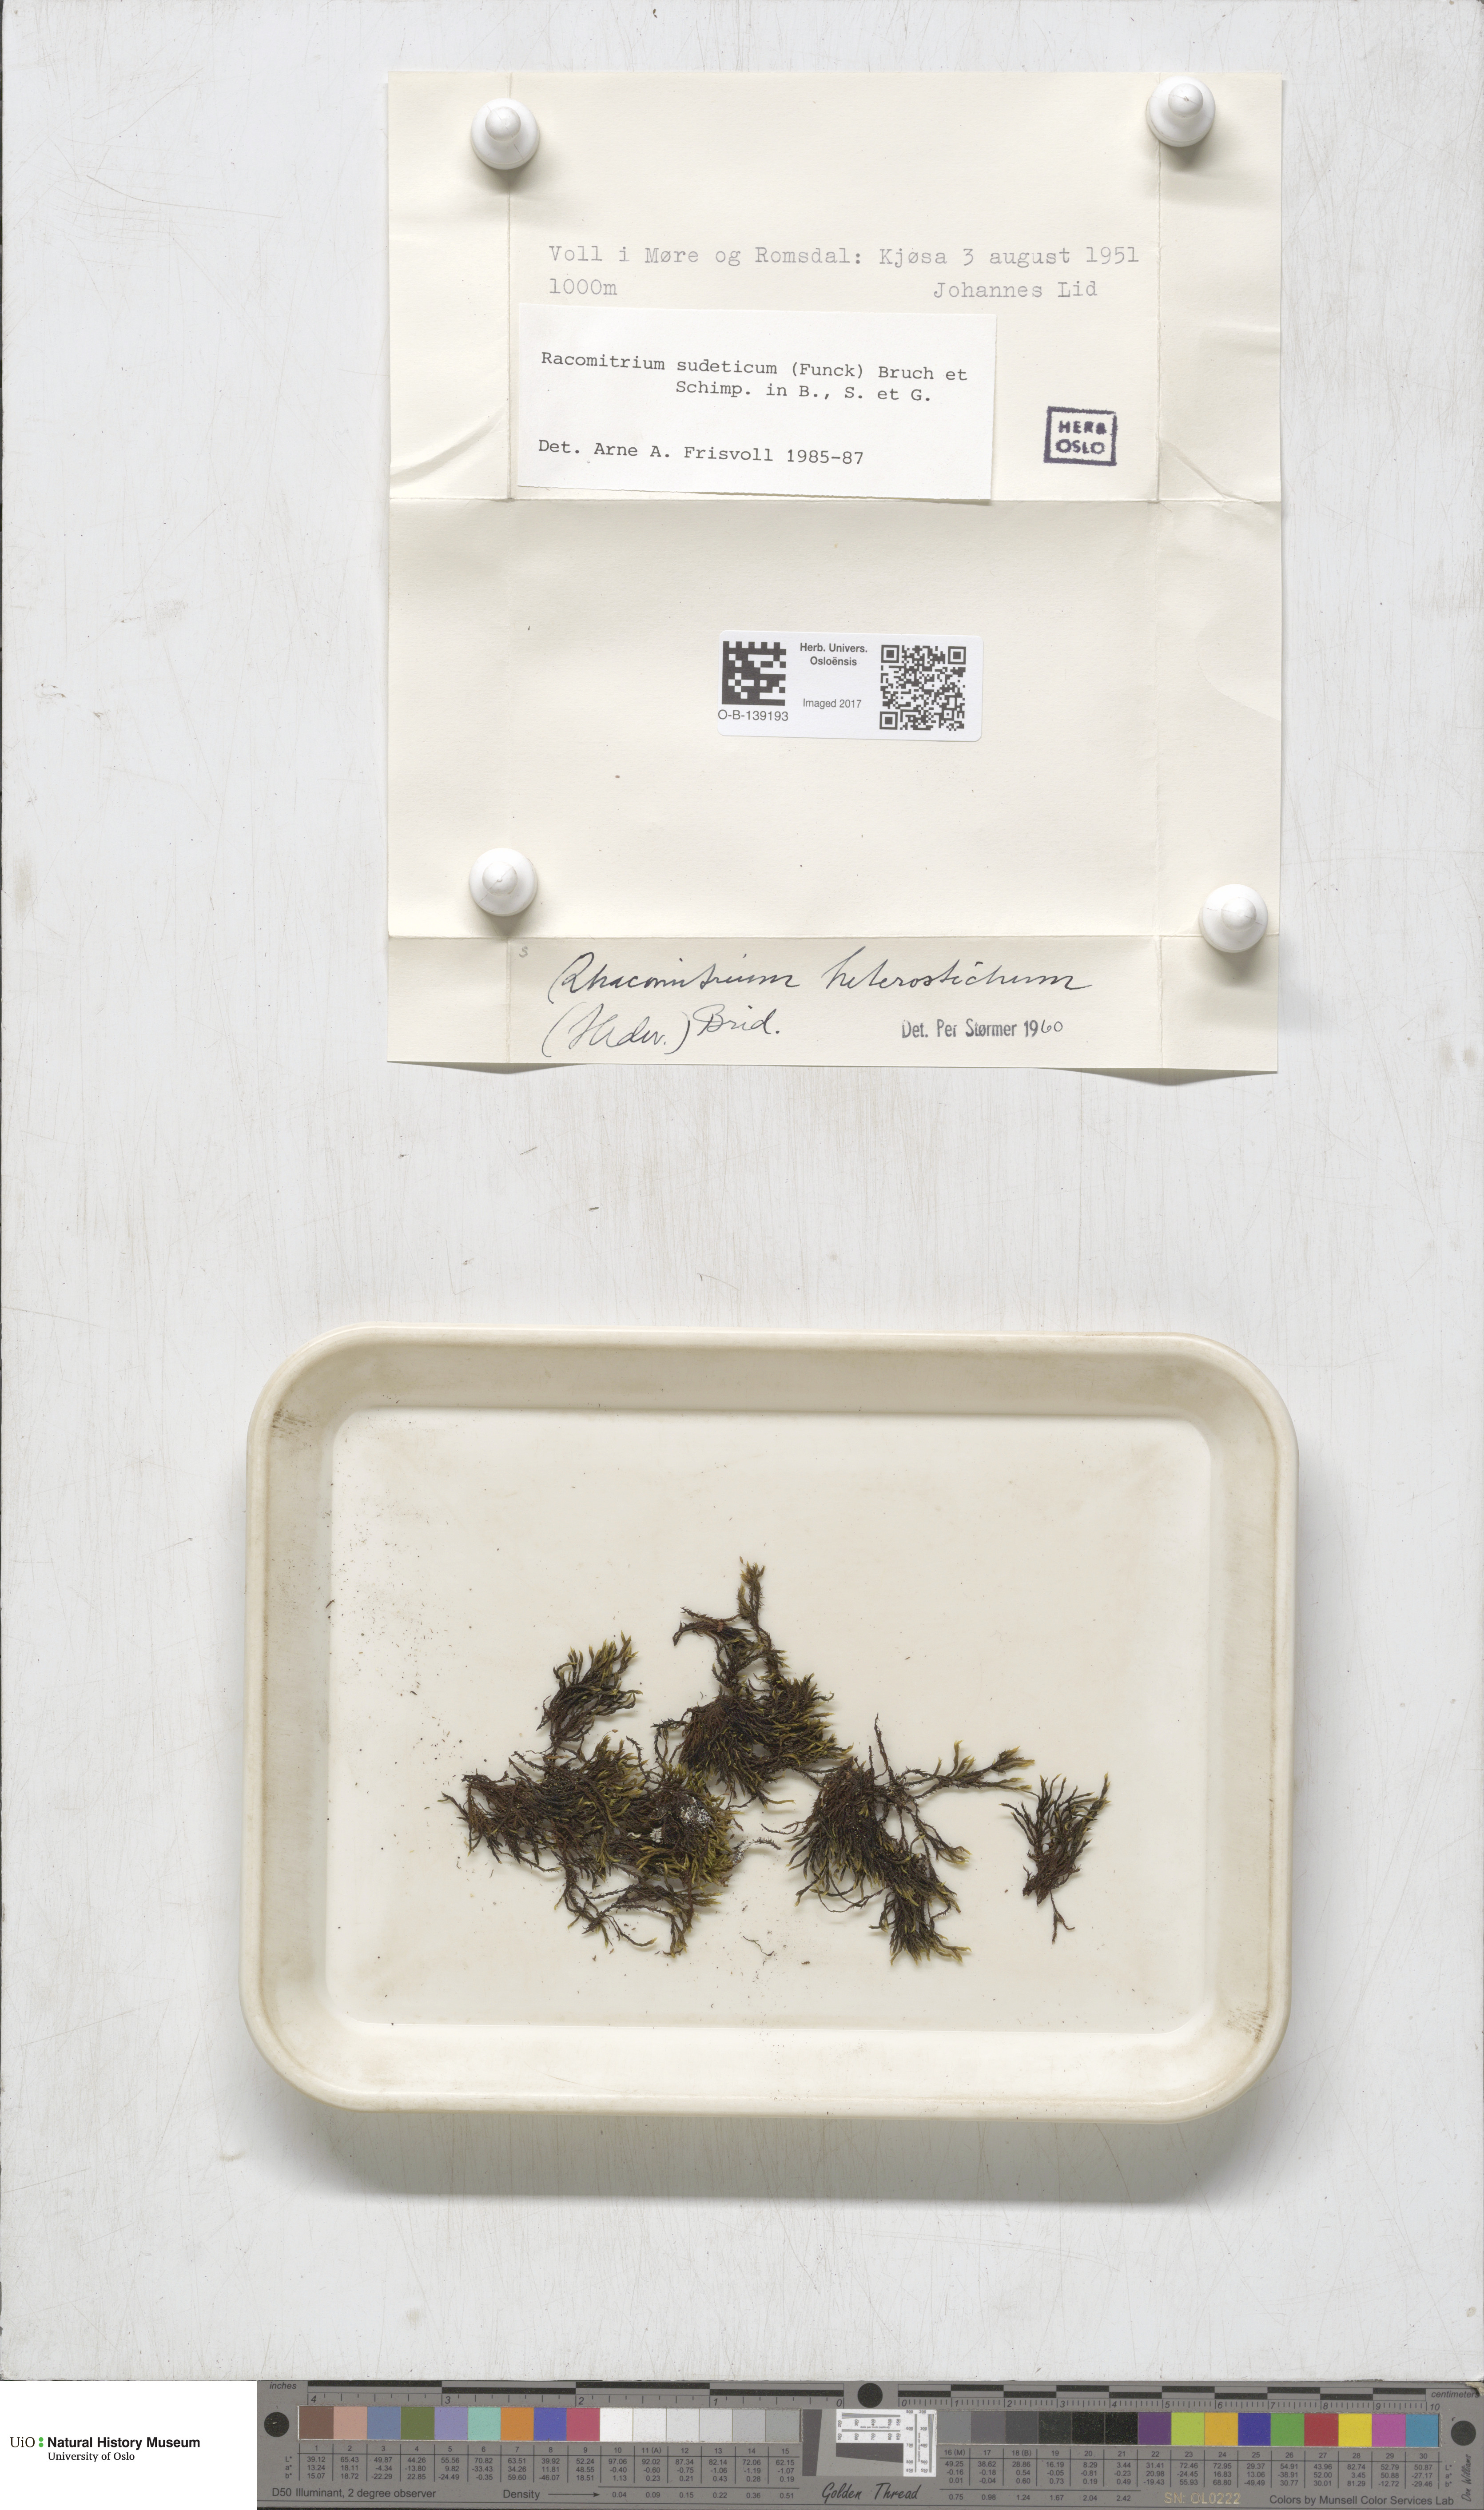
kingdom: Plantae
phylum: Bryophyta
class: Bryopsida
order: Grimmiales
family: Grimmiaceae
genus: Bucklandiella
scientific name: Bucklandiella sudetica
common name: Slender fringe-moss
